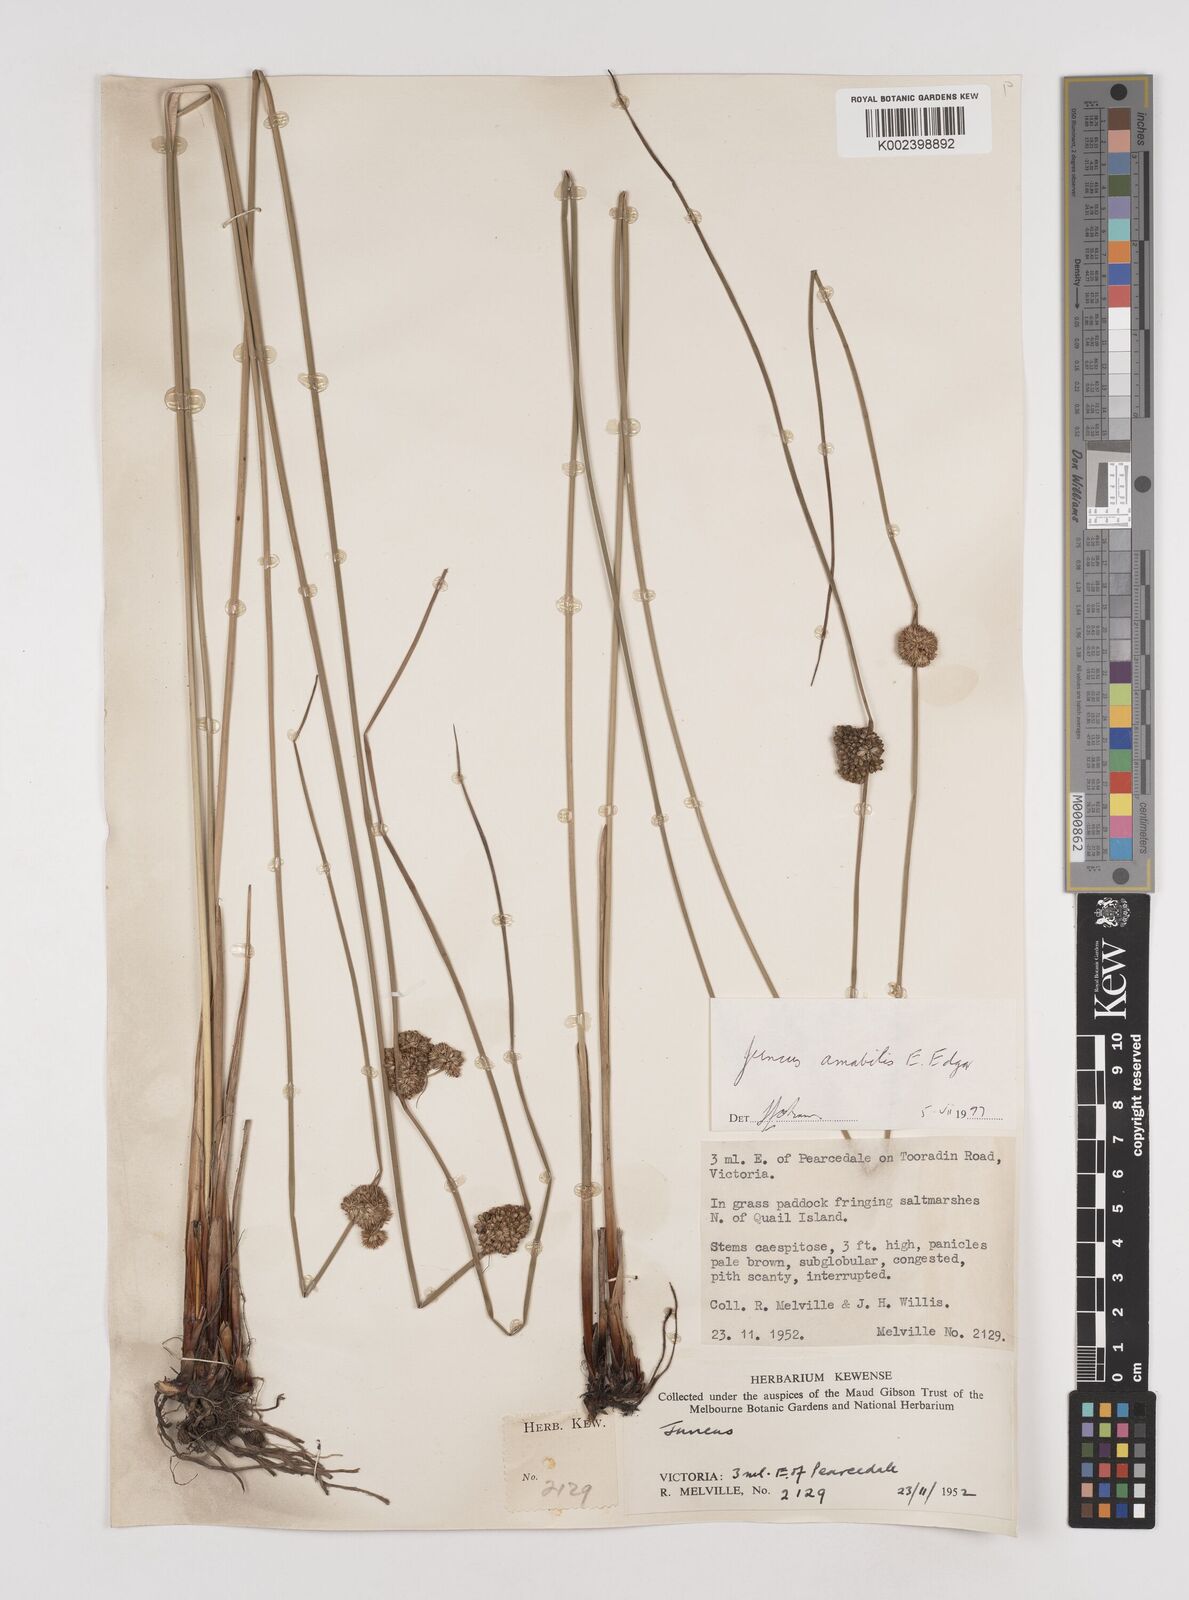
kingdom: Plantae
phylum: Tracheophyta
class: Liliopsida
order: Poales
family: Juncaceae
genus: Juncus
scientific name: Juncus amabilis
